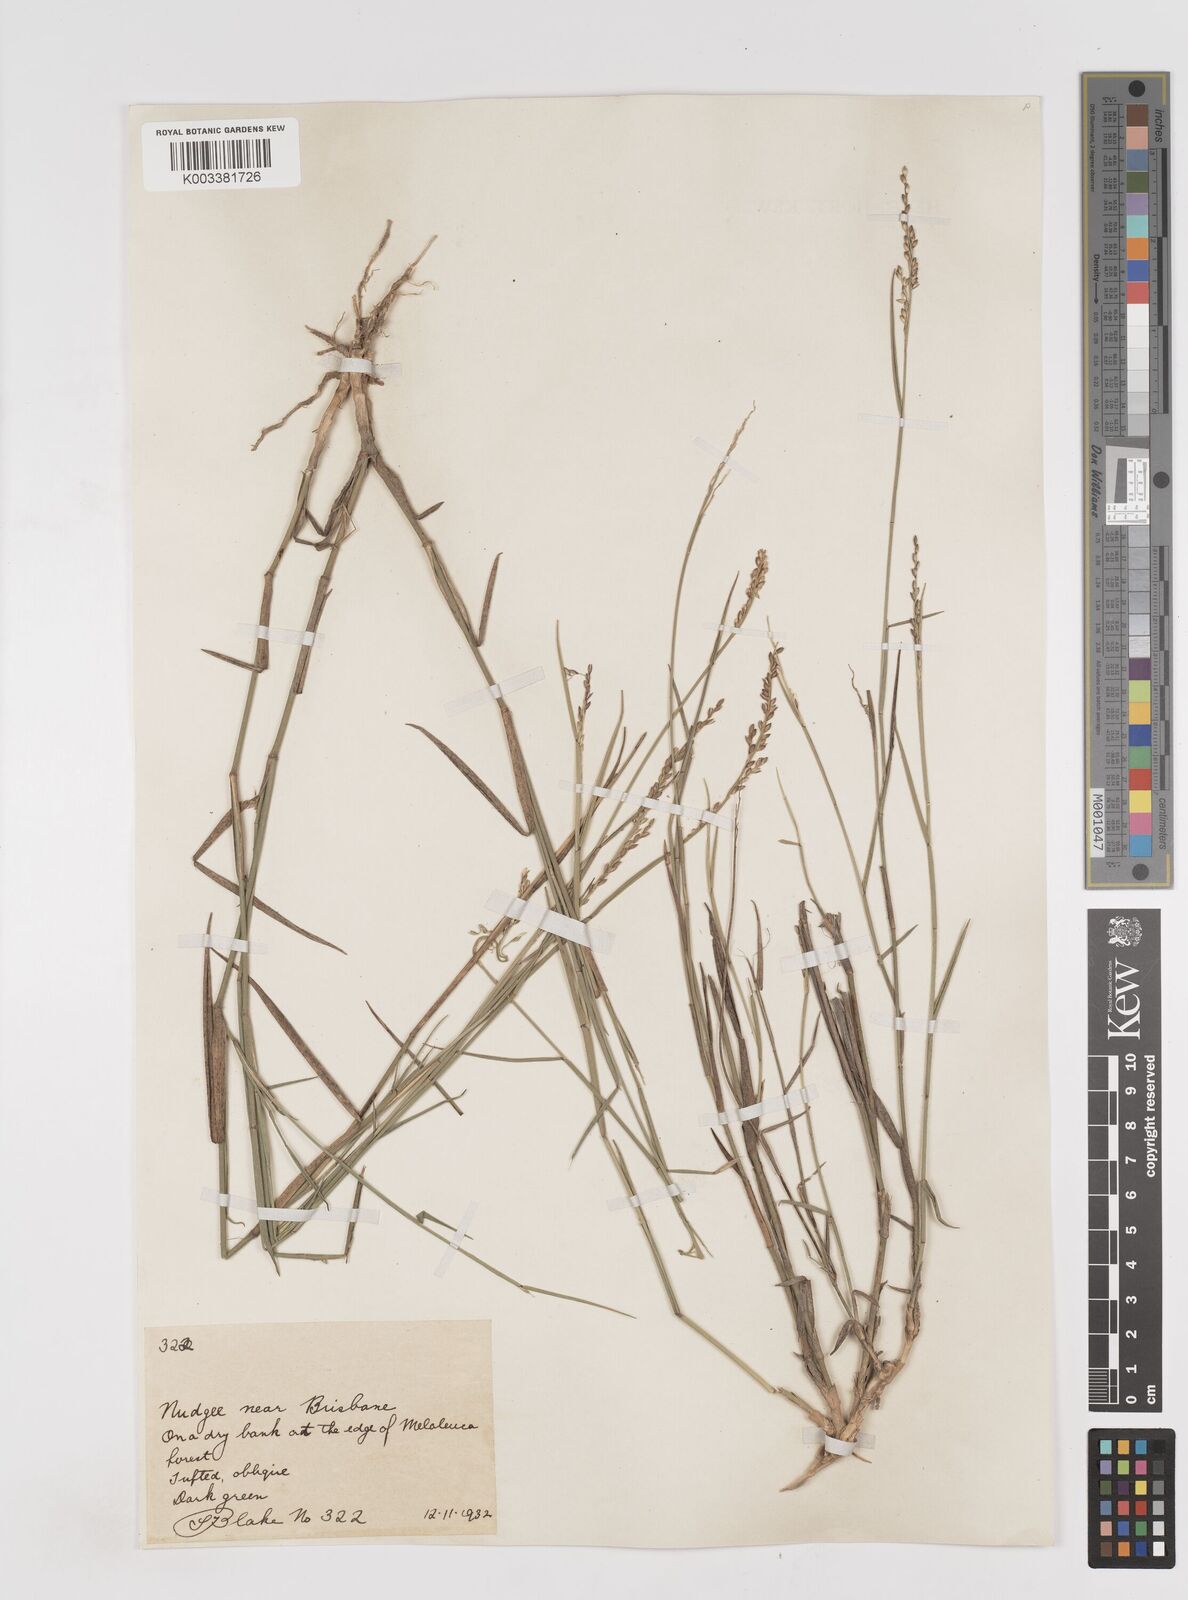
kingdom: Plantae
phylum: Tracheophyta
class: Liliopsida
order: Poales
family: Poaceae
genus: Entolasia
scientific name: Entolasia stricta
